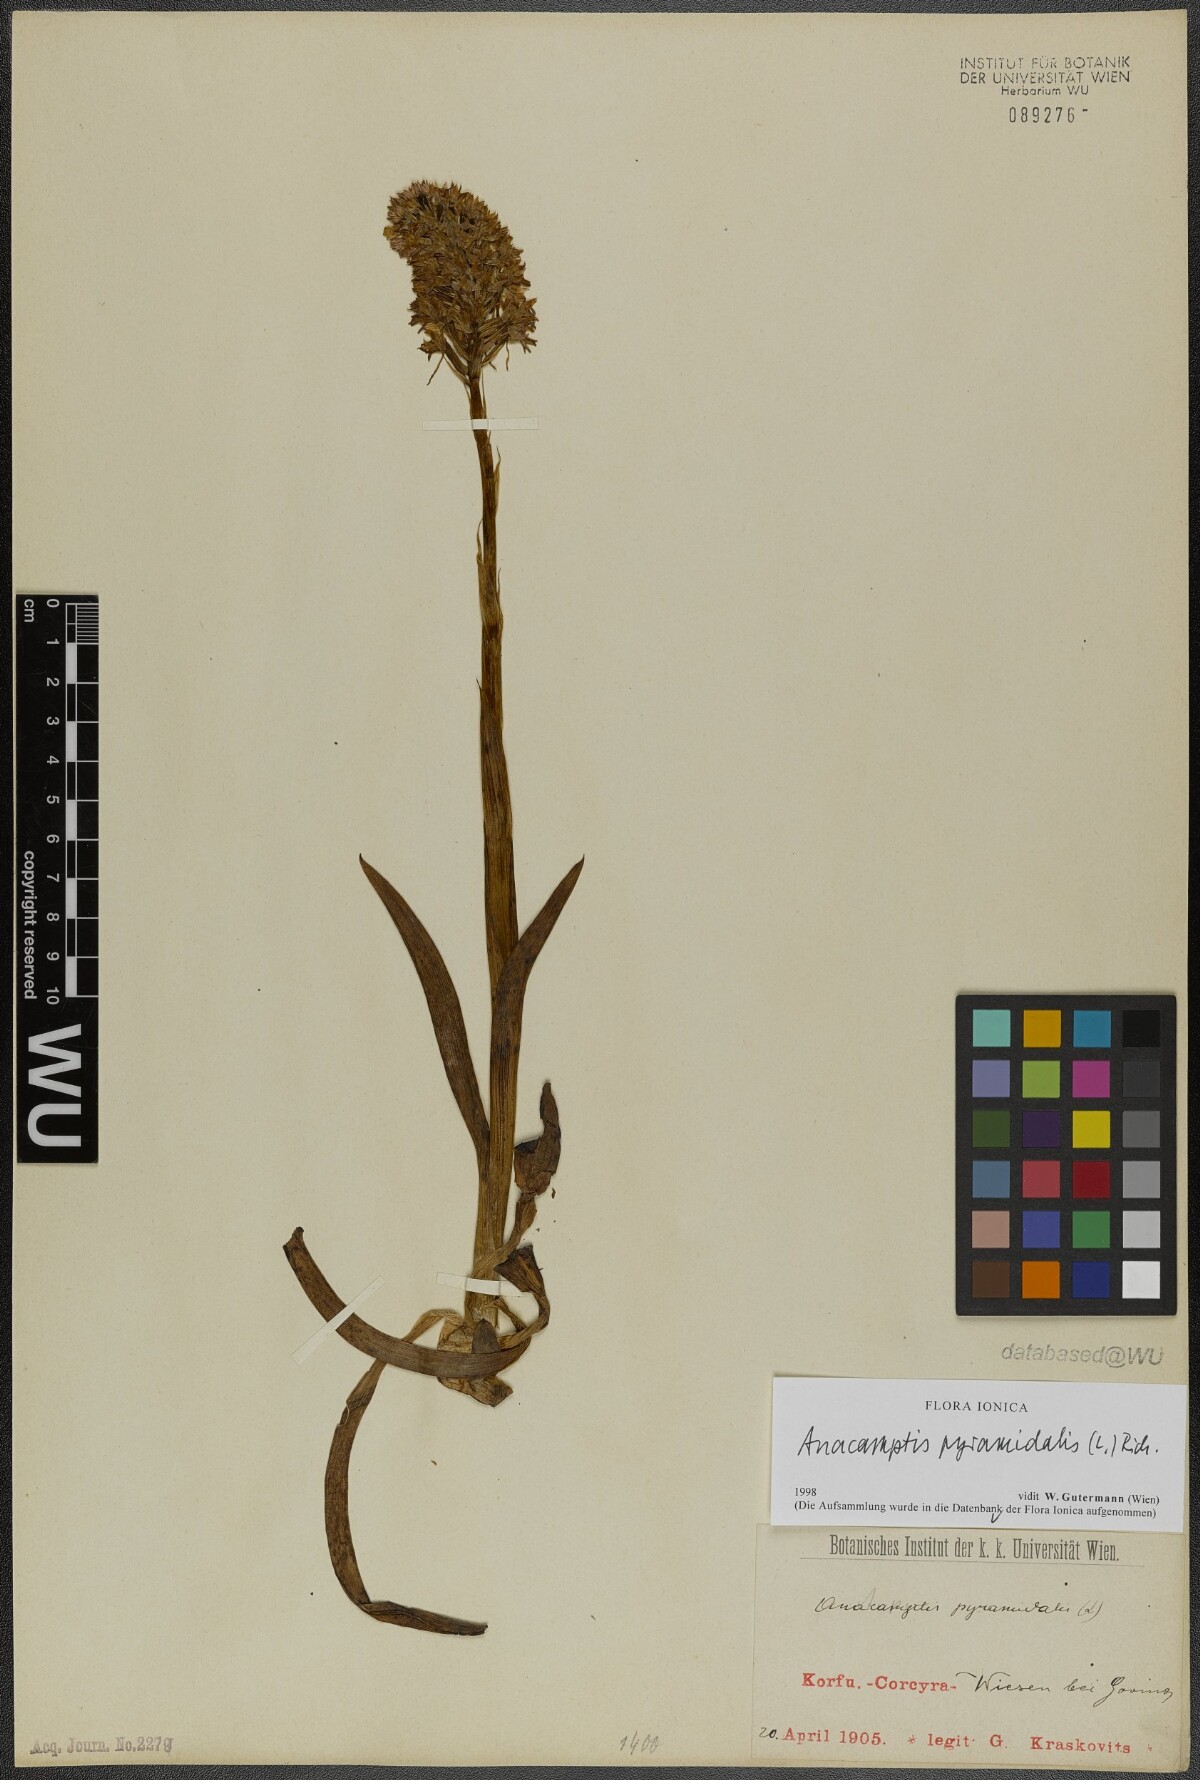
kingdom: Plantae
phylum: Tracheophyta
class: Liliopsida
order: Asparagales
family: Orchidaceae
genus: Anacamptis
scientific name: Anacamptis pyramidalis
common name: Pyramidal orchid
